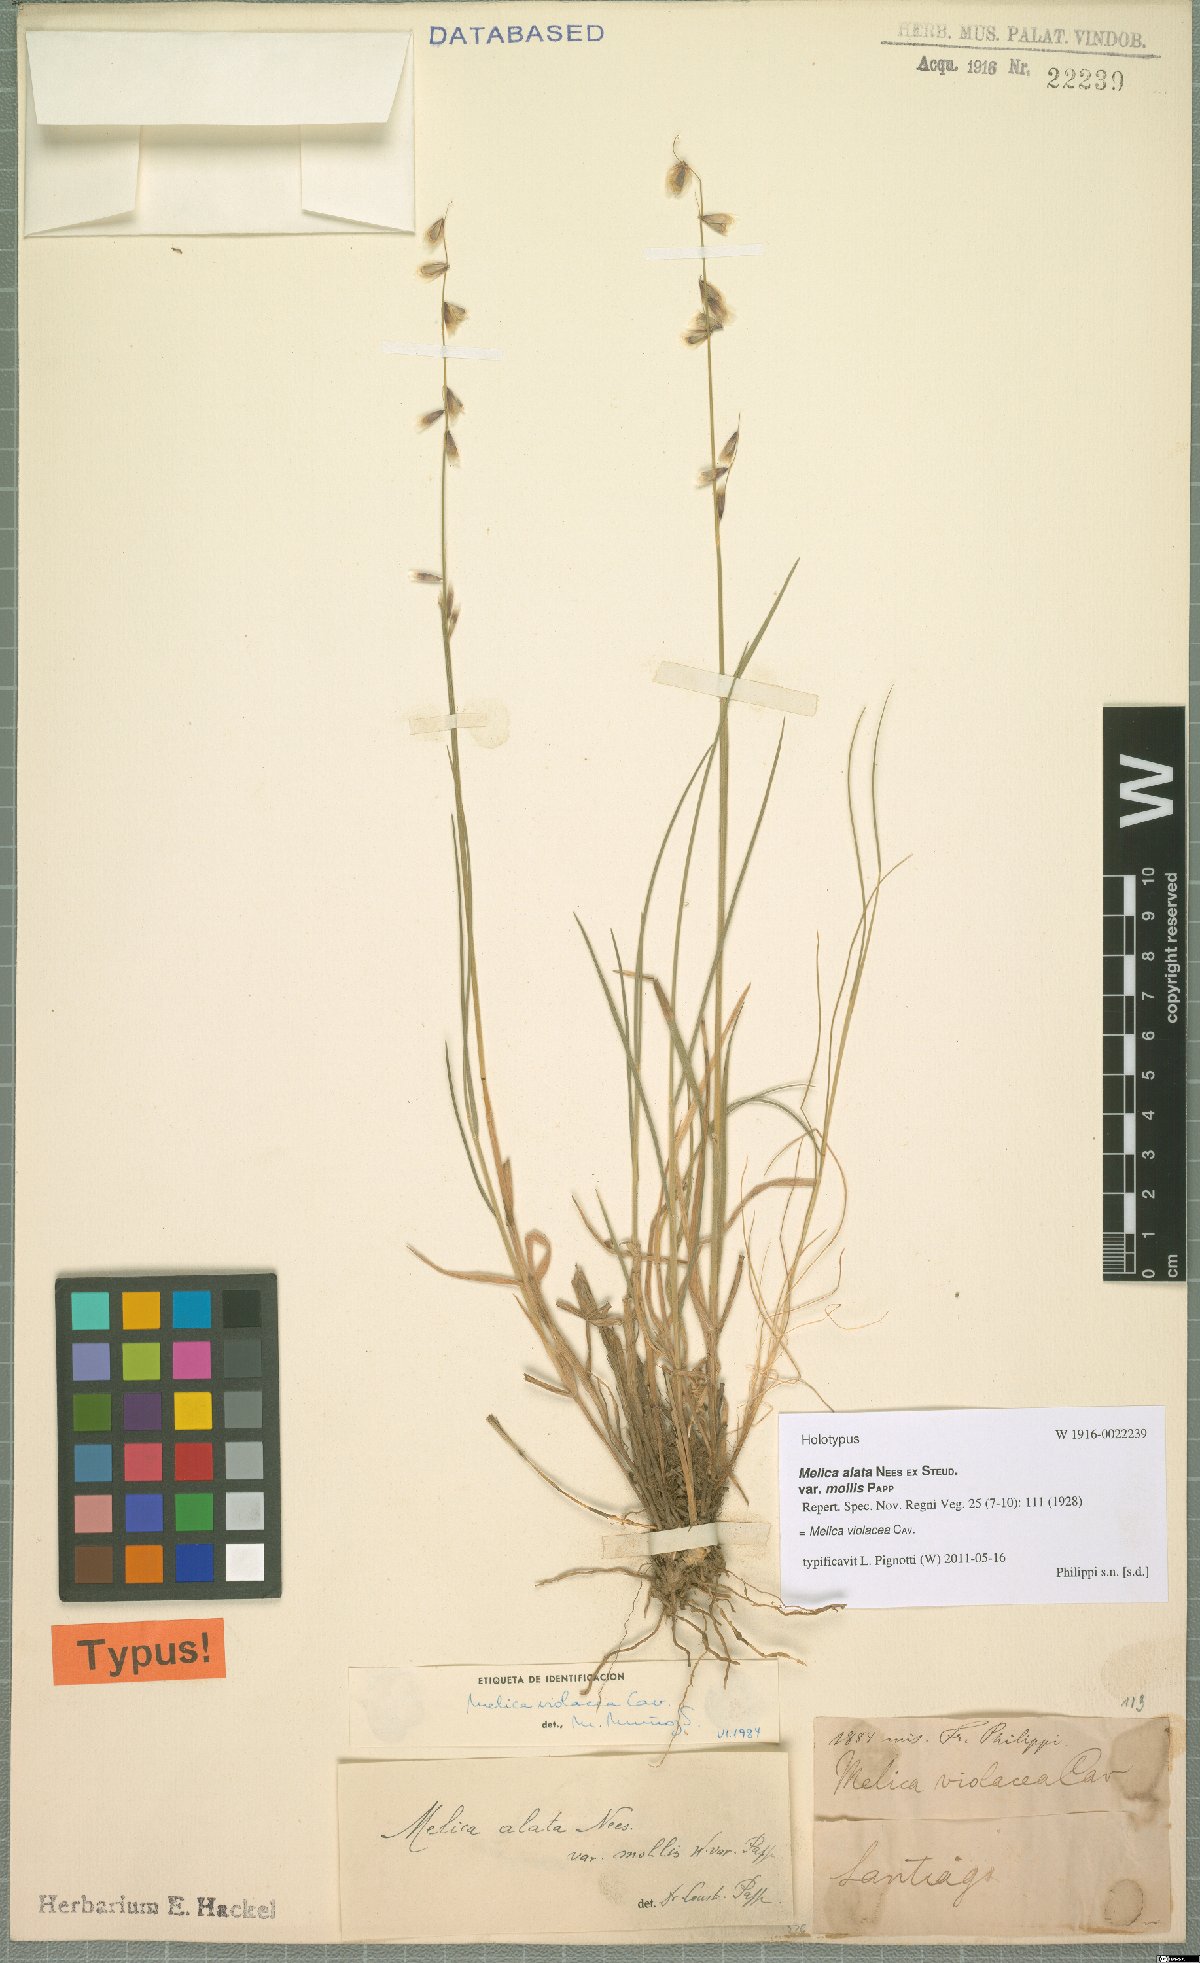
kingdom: Plantae
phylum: Tracheophyta
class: Liliopsida
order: Poales
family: Poaceae
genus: Melica
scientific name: Melica violacea
